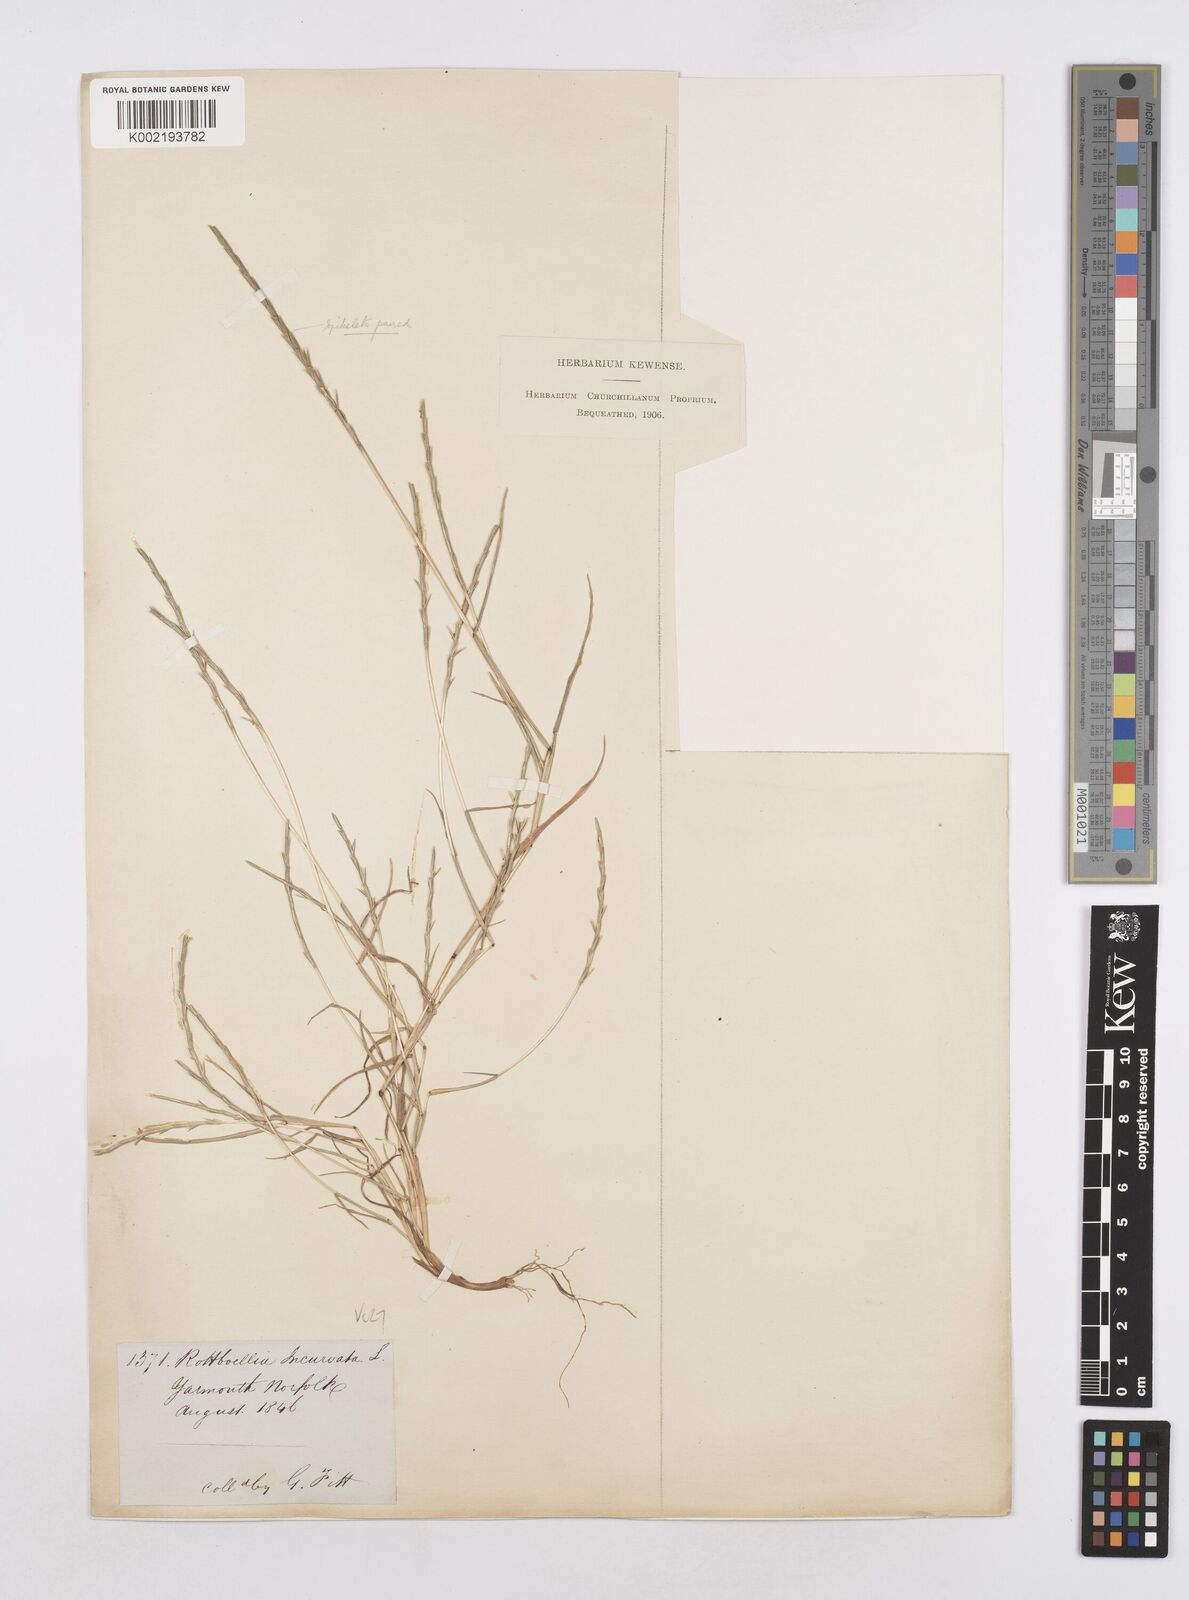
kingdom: Plantae
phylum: Tracheophyta
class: Liliopsida
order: Poales
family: Poaceae
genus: Parapholis
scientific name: Parapholis strigosa
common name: Hard-grass
